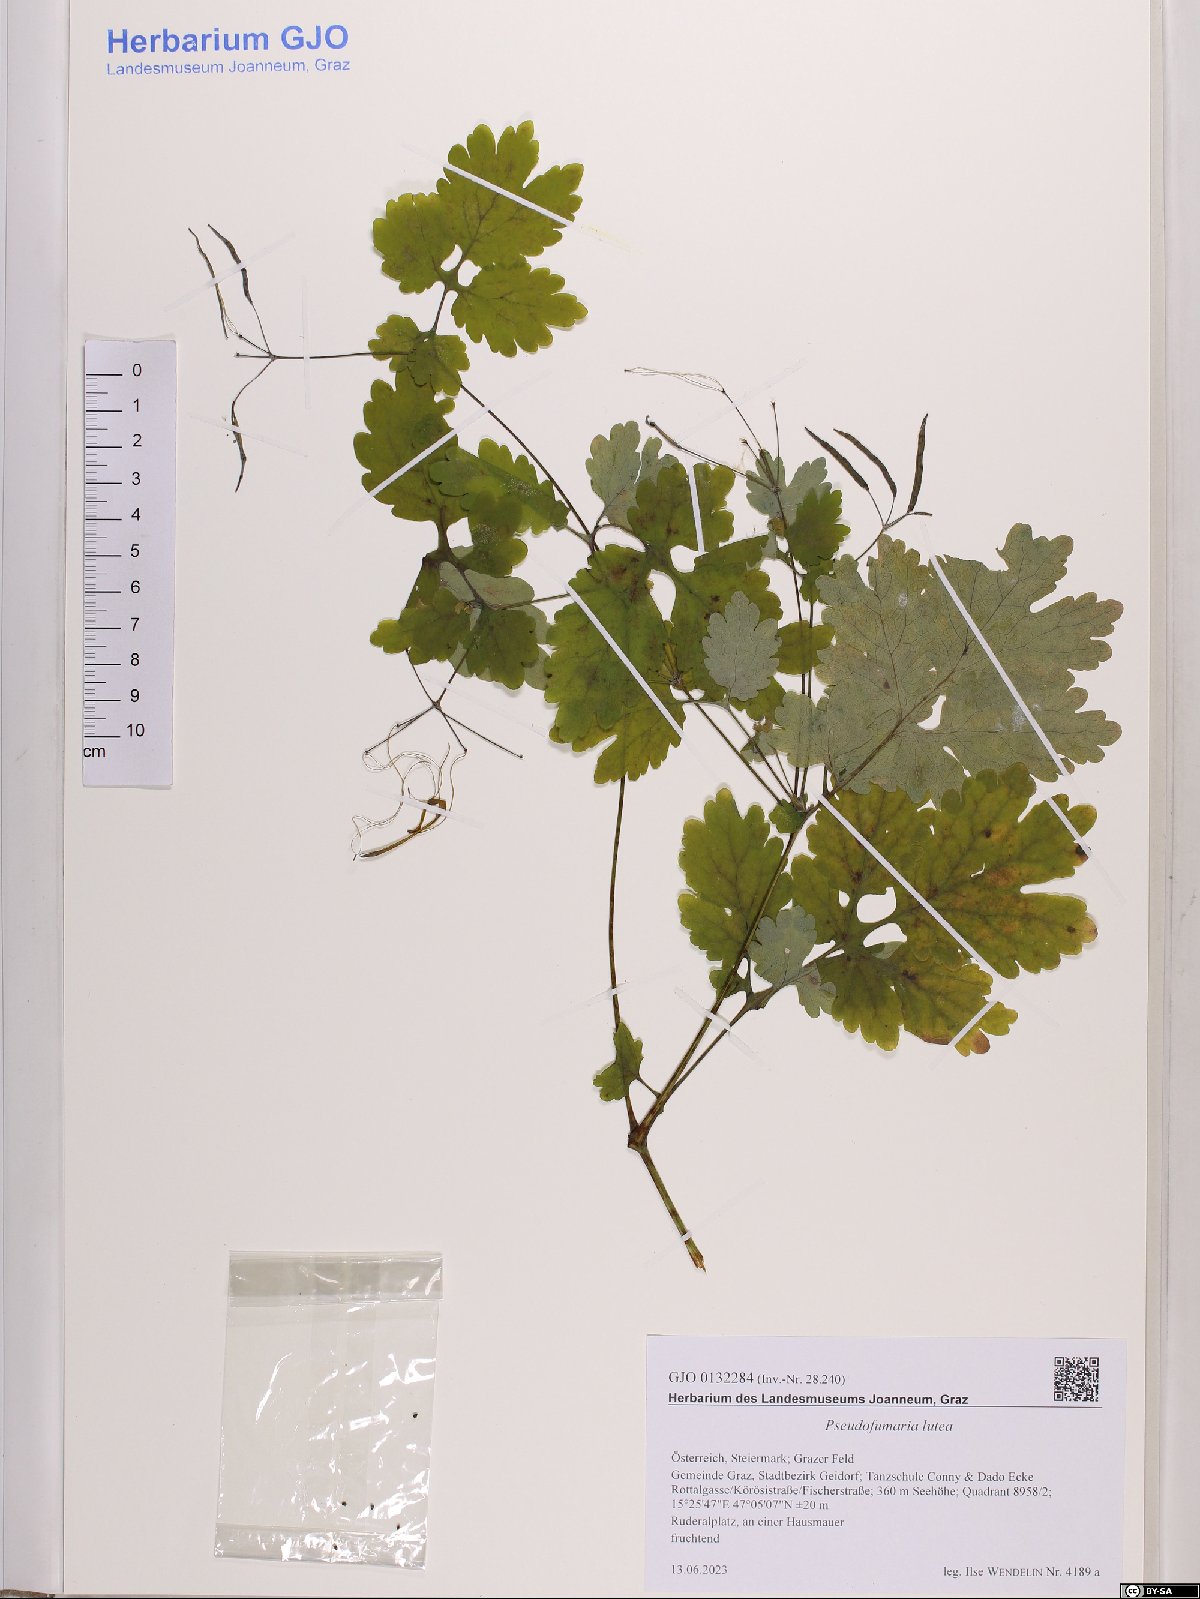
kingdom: Plantae
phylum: Tracheophyta
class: Magnoliopsida
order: Ranunculales
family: Papaveraceae
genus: Pseudofumaria
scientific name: Pseudofumaria lutea
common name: Yellow corydalis
